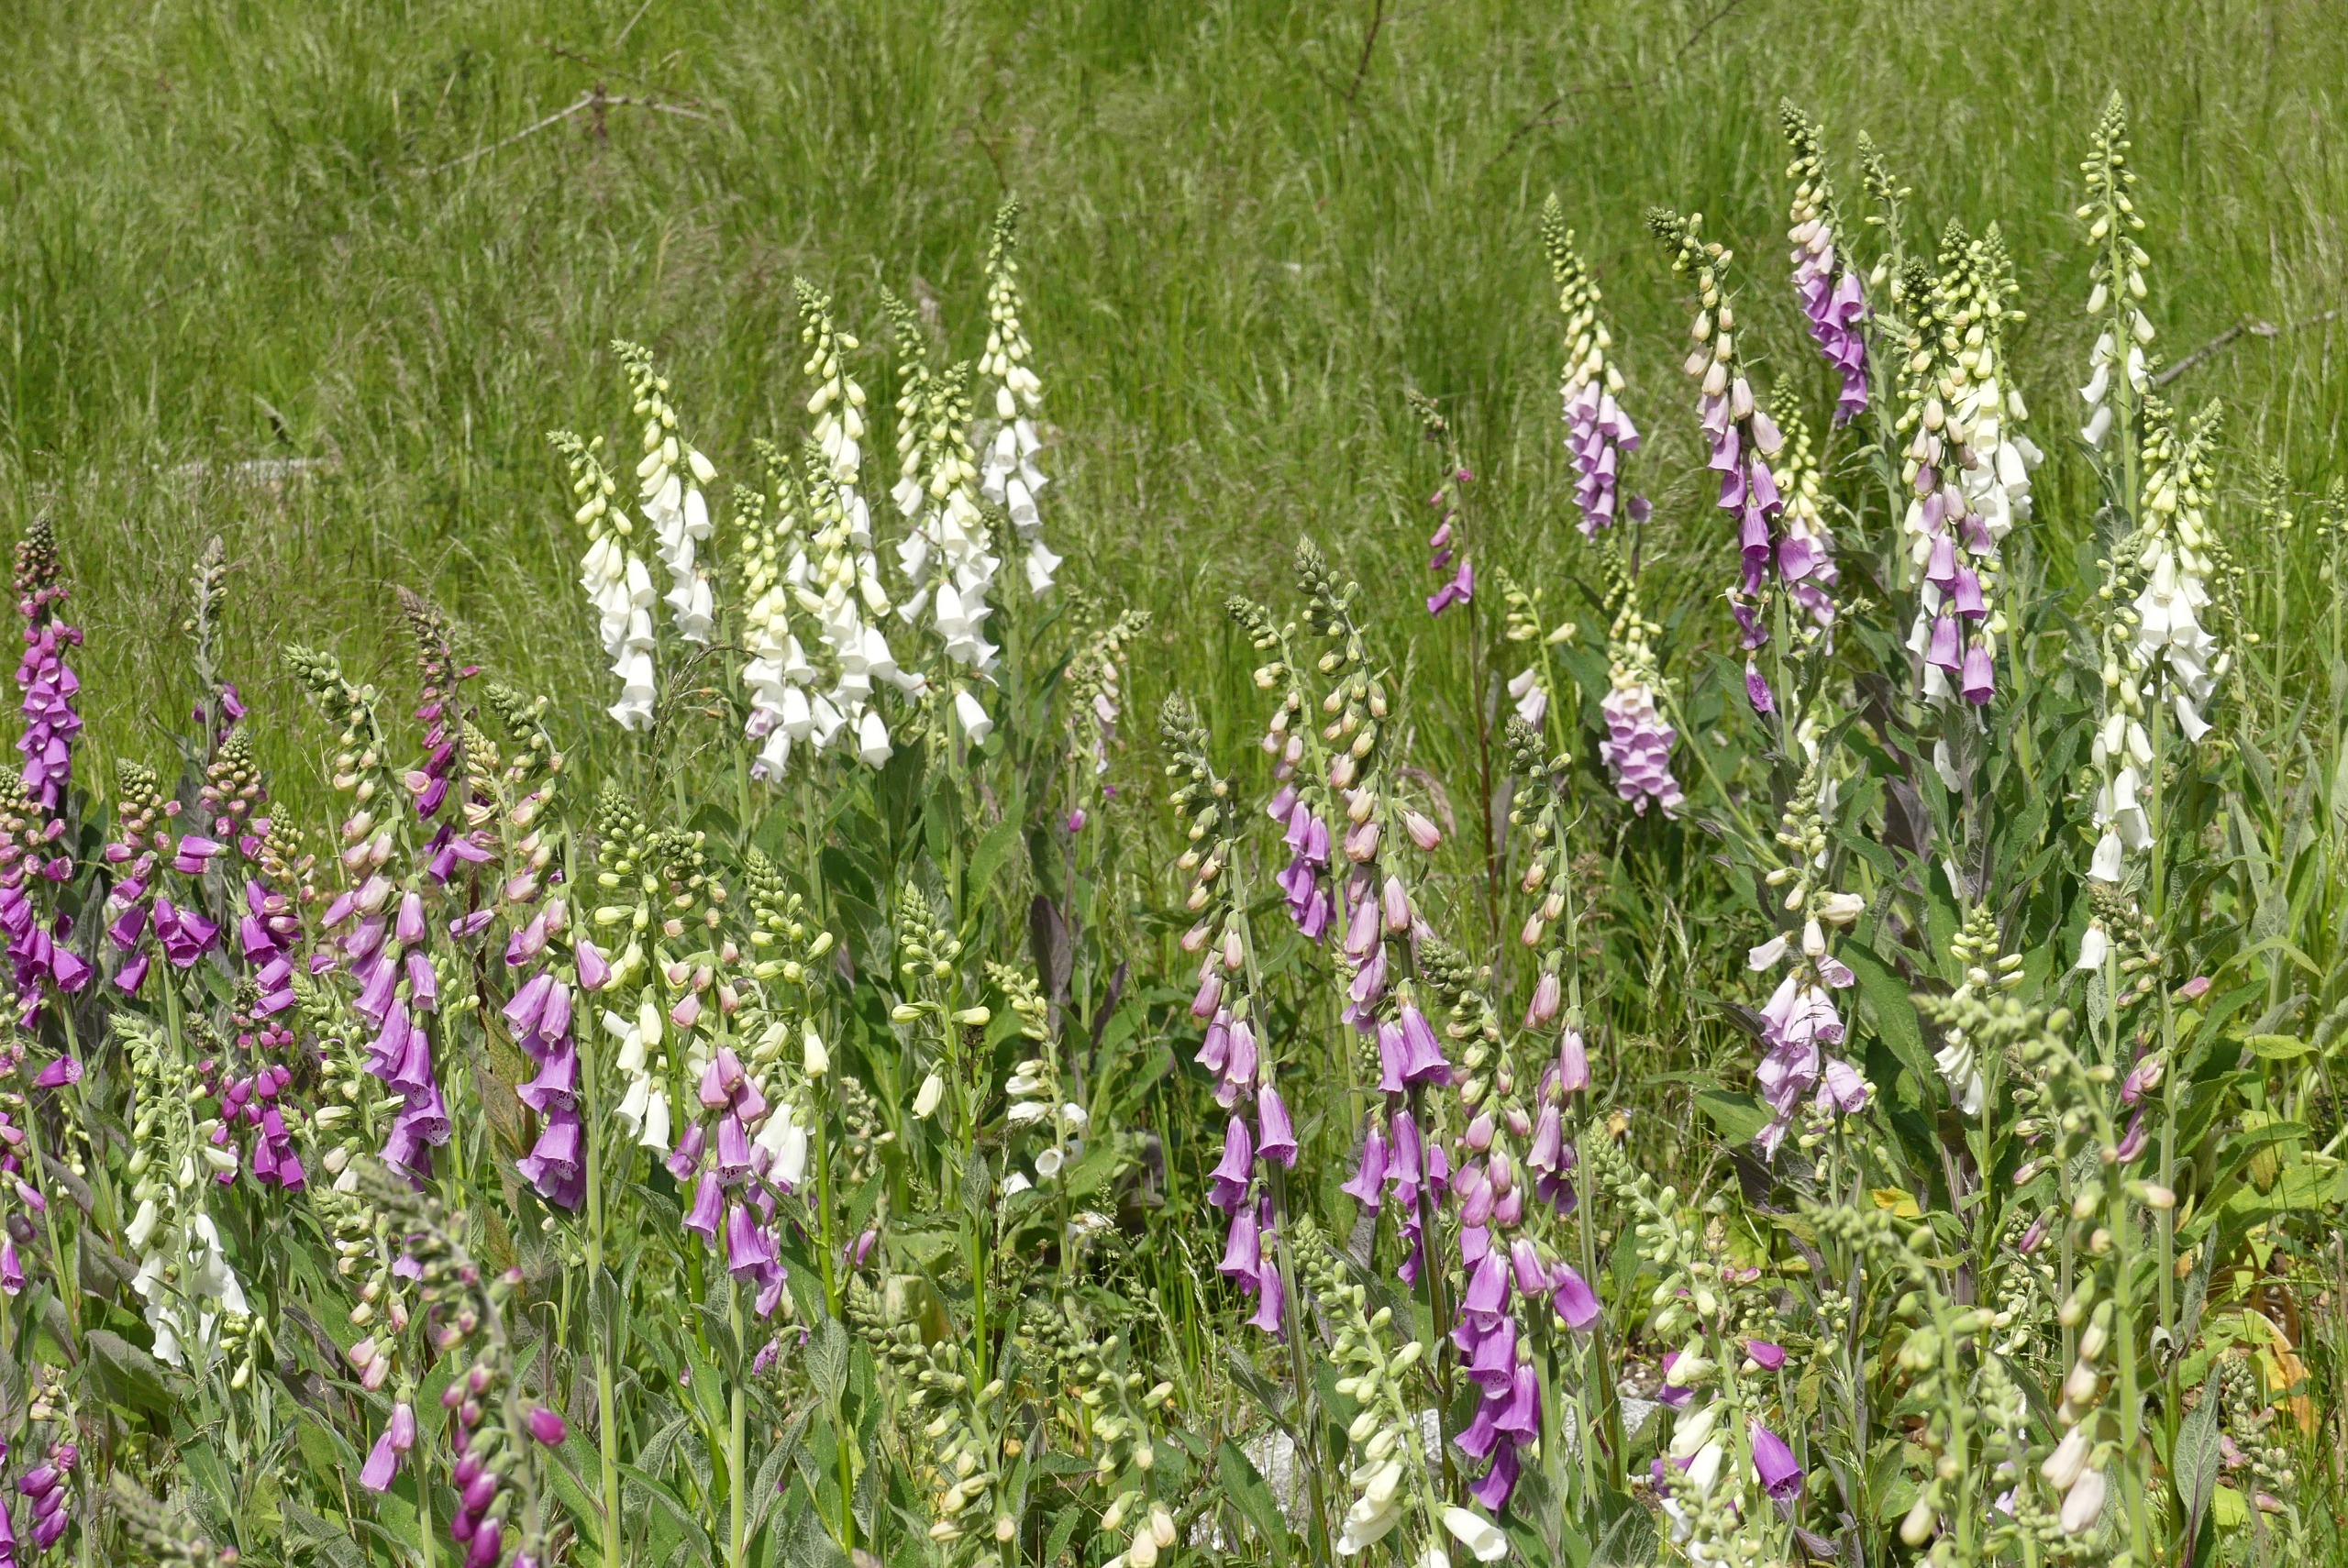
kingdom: Plantae
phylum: Tracheophyta
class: Magnoliopsida
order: Lamiales
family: Plantaginaceae
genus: Digitalis
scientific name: Digitalis purpurea
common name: Almindelig fingerbøl
